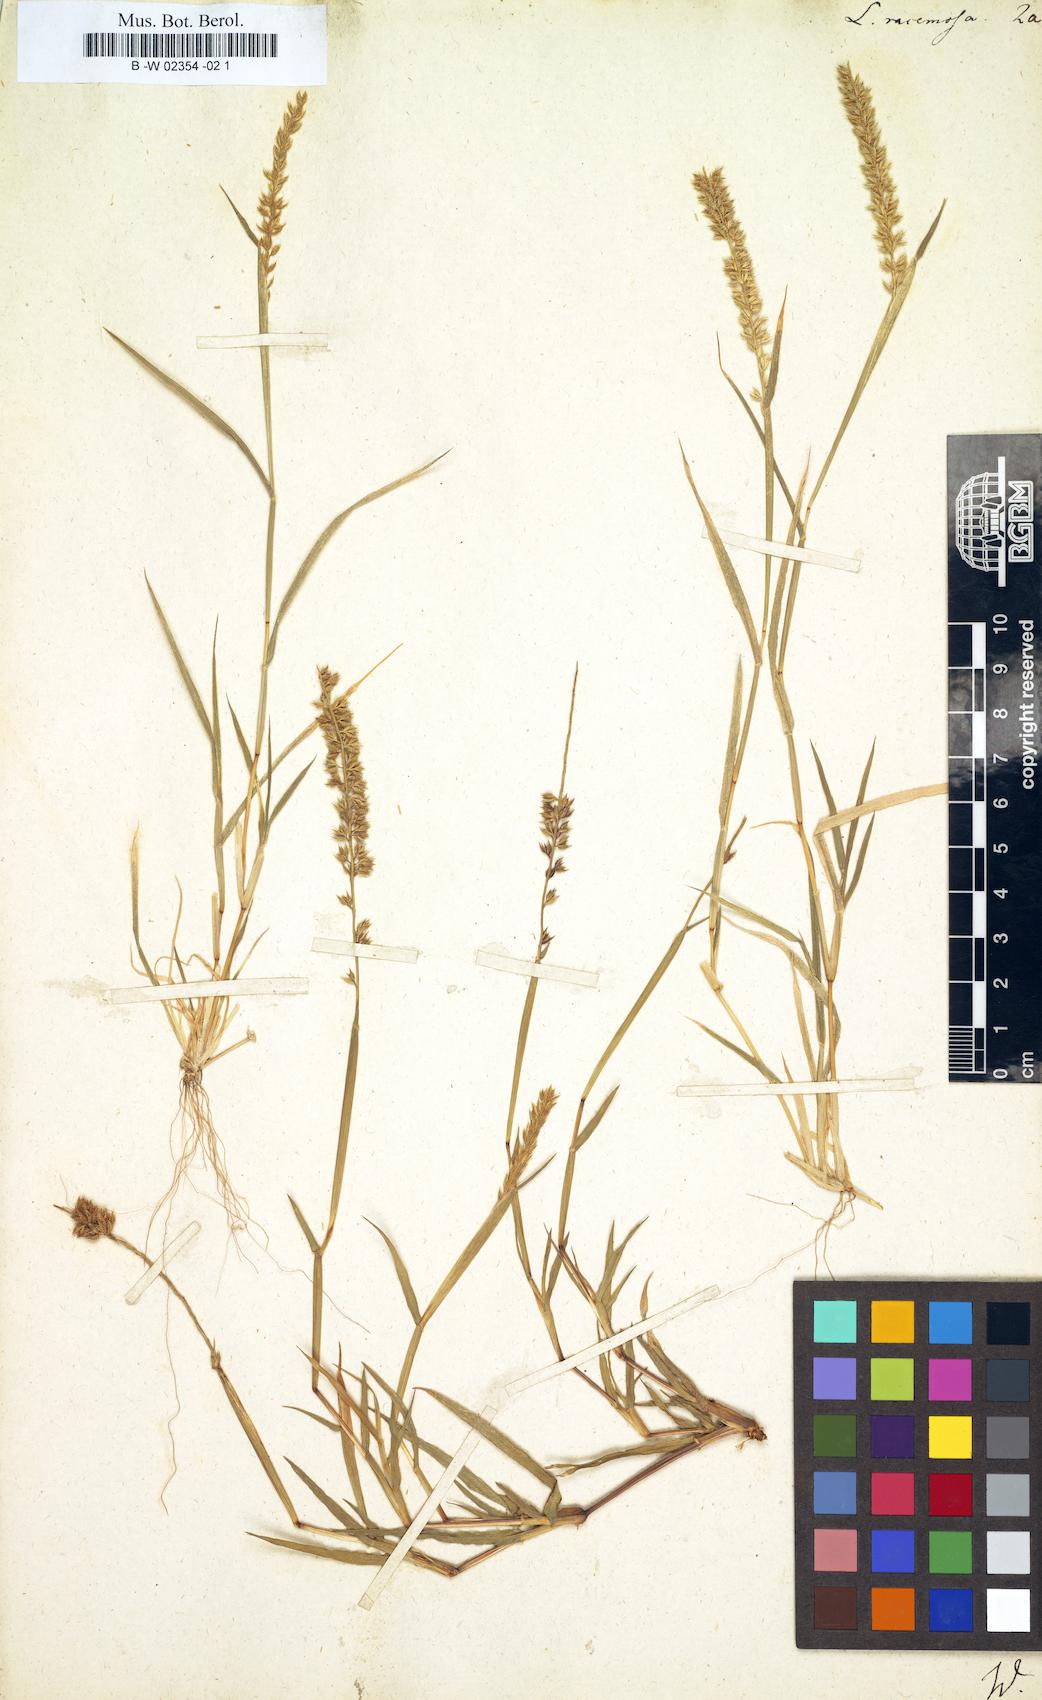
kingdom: Plantae
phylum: Tracheophyta
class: Liliopsida
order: Poales
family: Poaceae
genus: Tragus
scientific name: Tragus racemosus
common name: European bur-grass
